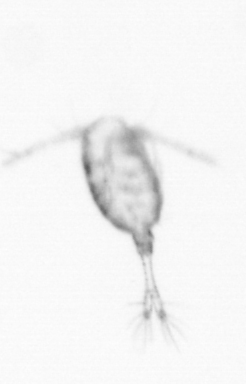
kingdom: Animalia
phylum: Arthropoda
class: Copepoda
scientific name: Copepoda
